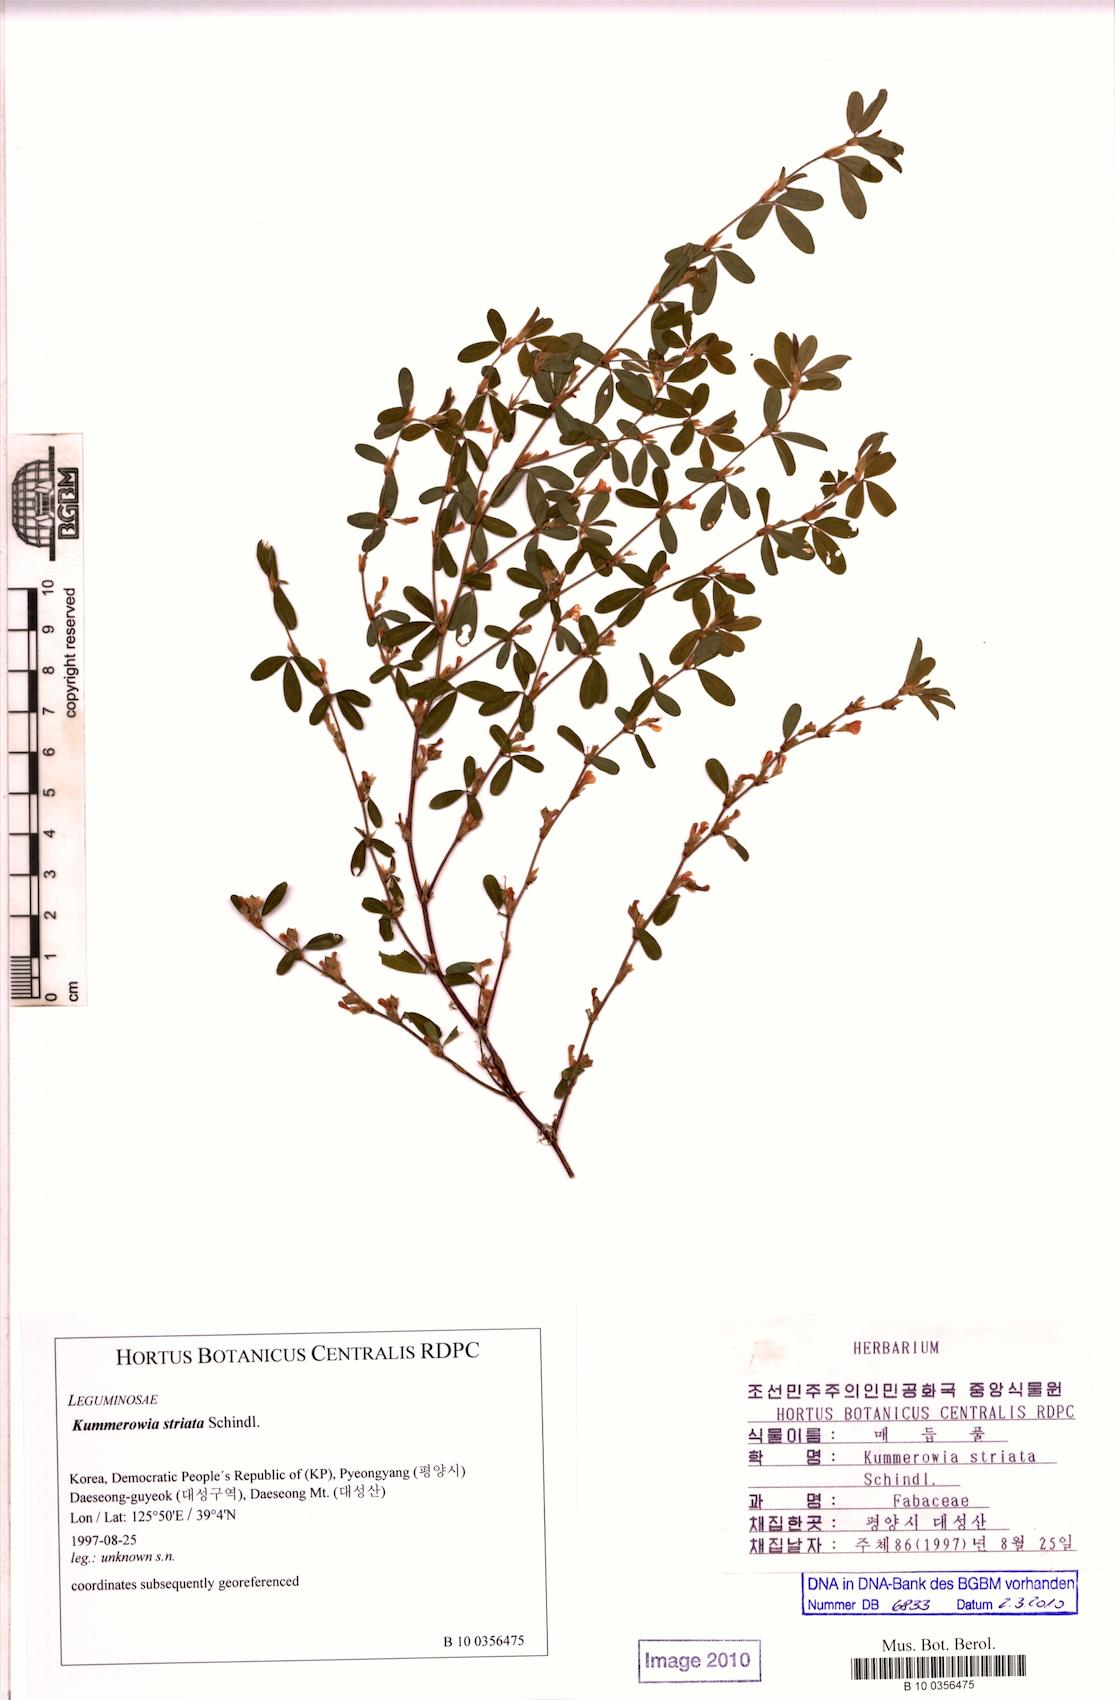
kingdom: Plantae
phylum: Tracheophyta
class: Magnoliopsida
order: Fabales
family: Fabaceae
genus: Kummerowia
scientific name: Kummerowia striata
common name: Japanese clover
